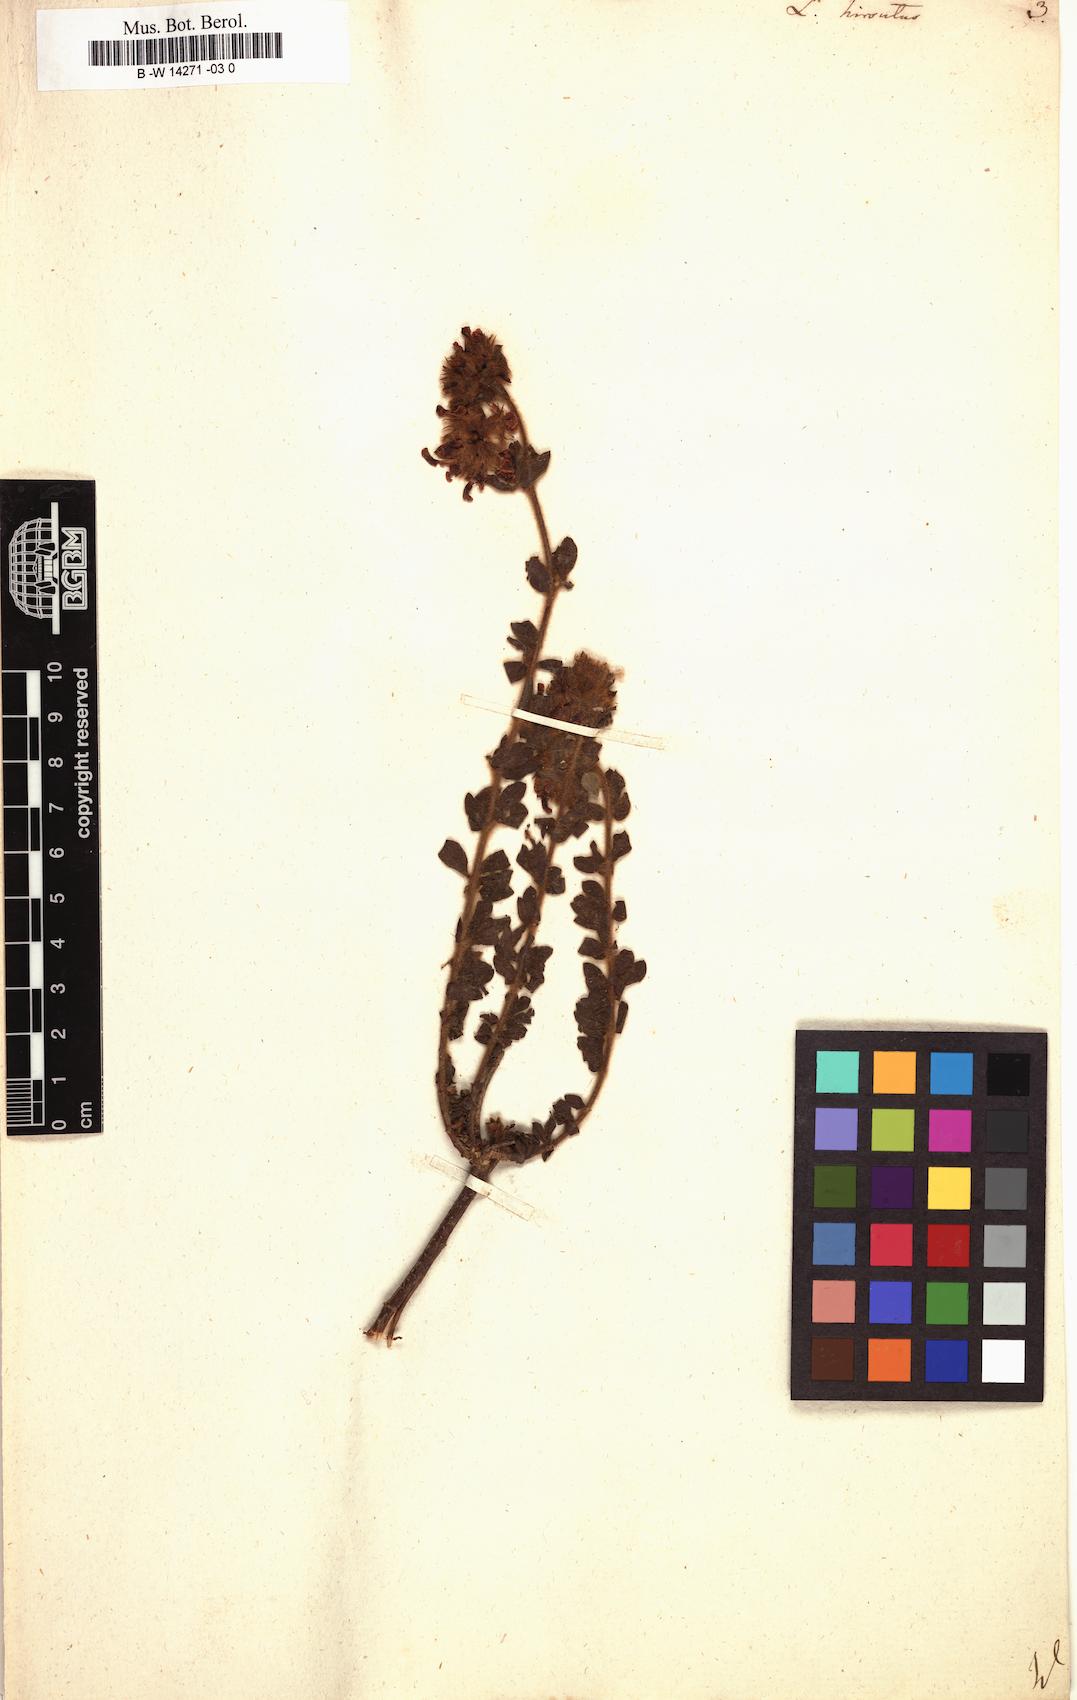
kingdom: Plantae
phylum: Tracheophyta
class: Magnoliopsida
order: Fabales
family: Fabaceae
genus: Lotus
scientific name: Lotus hirsutus
